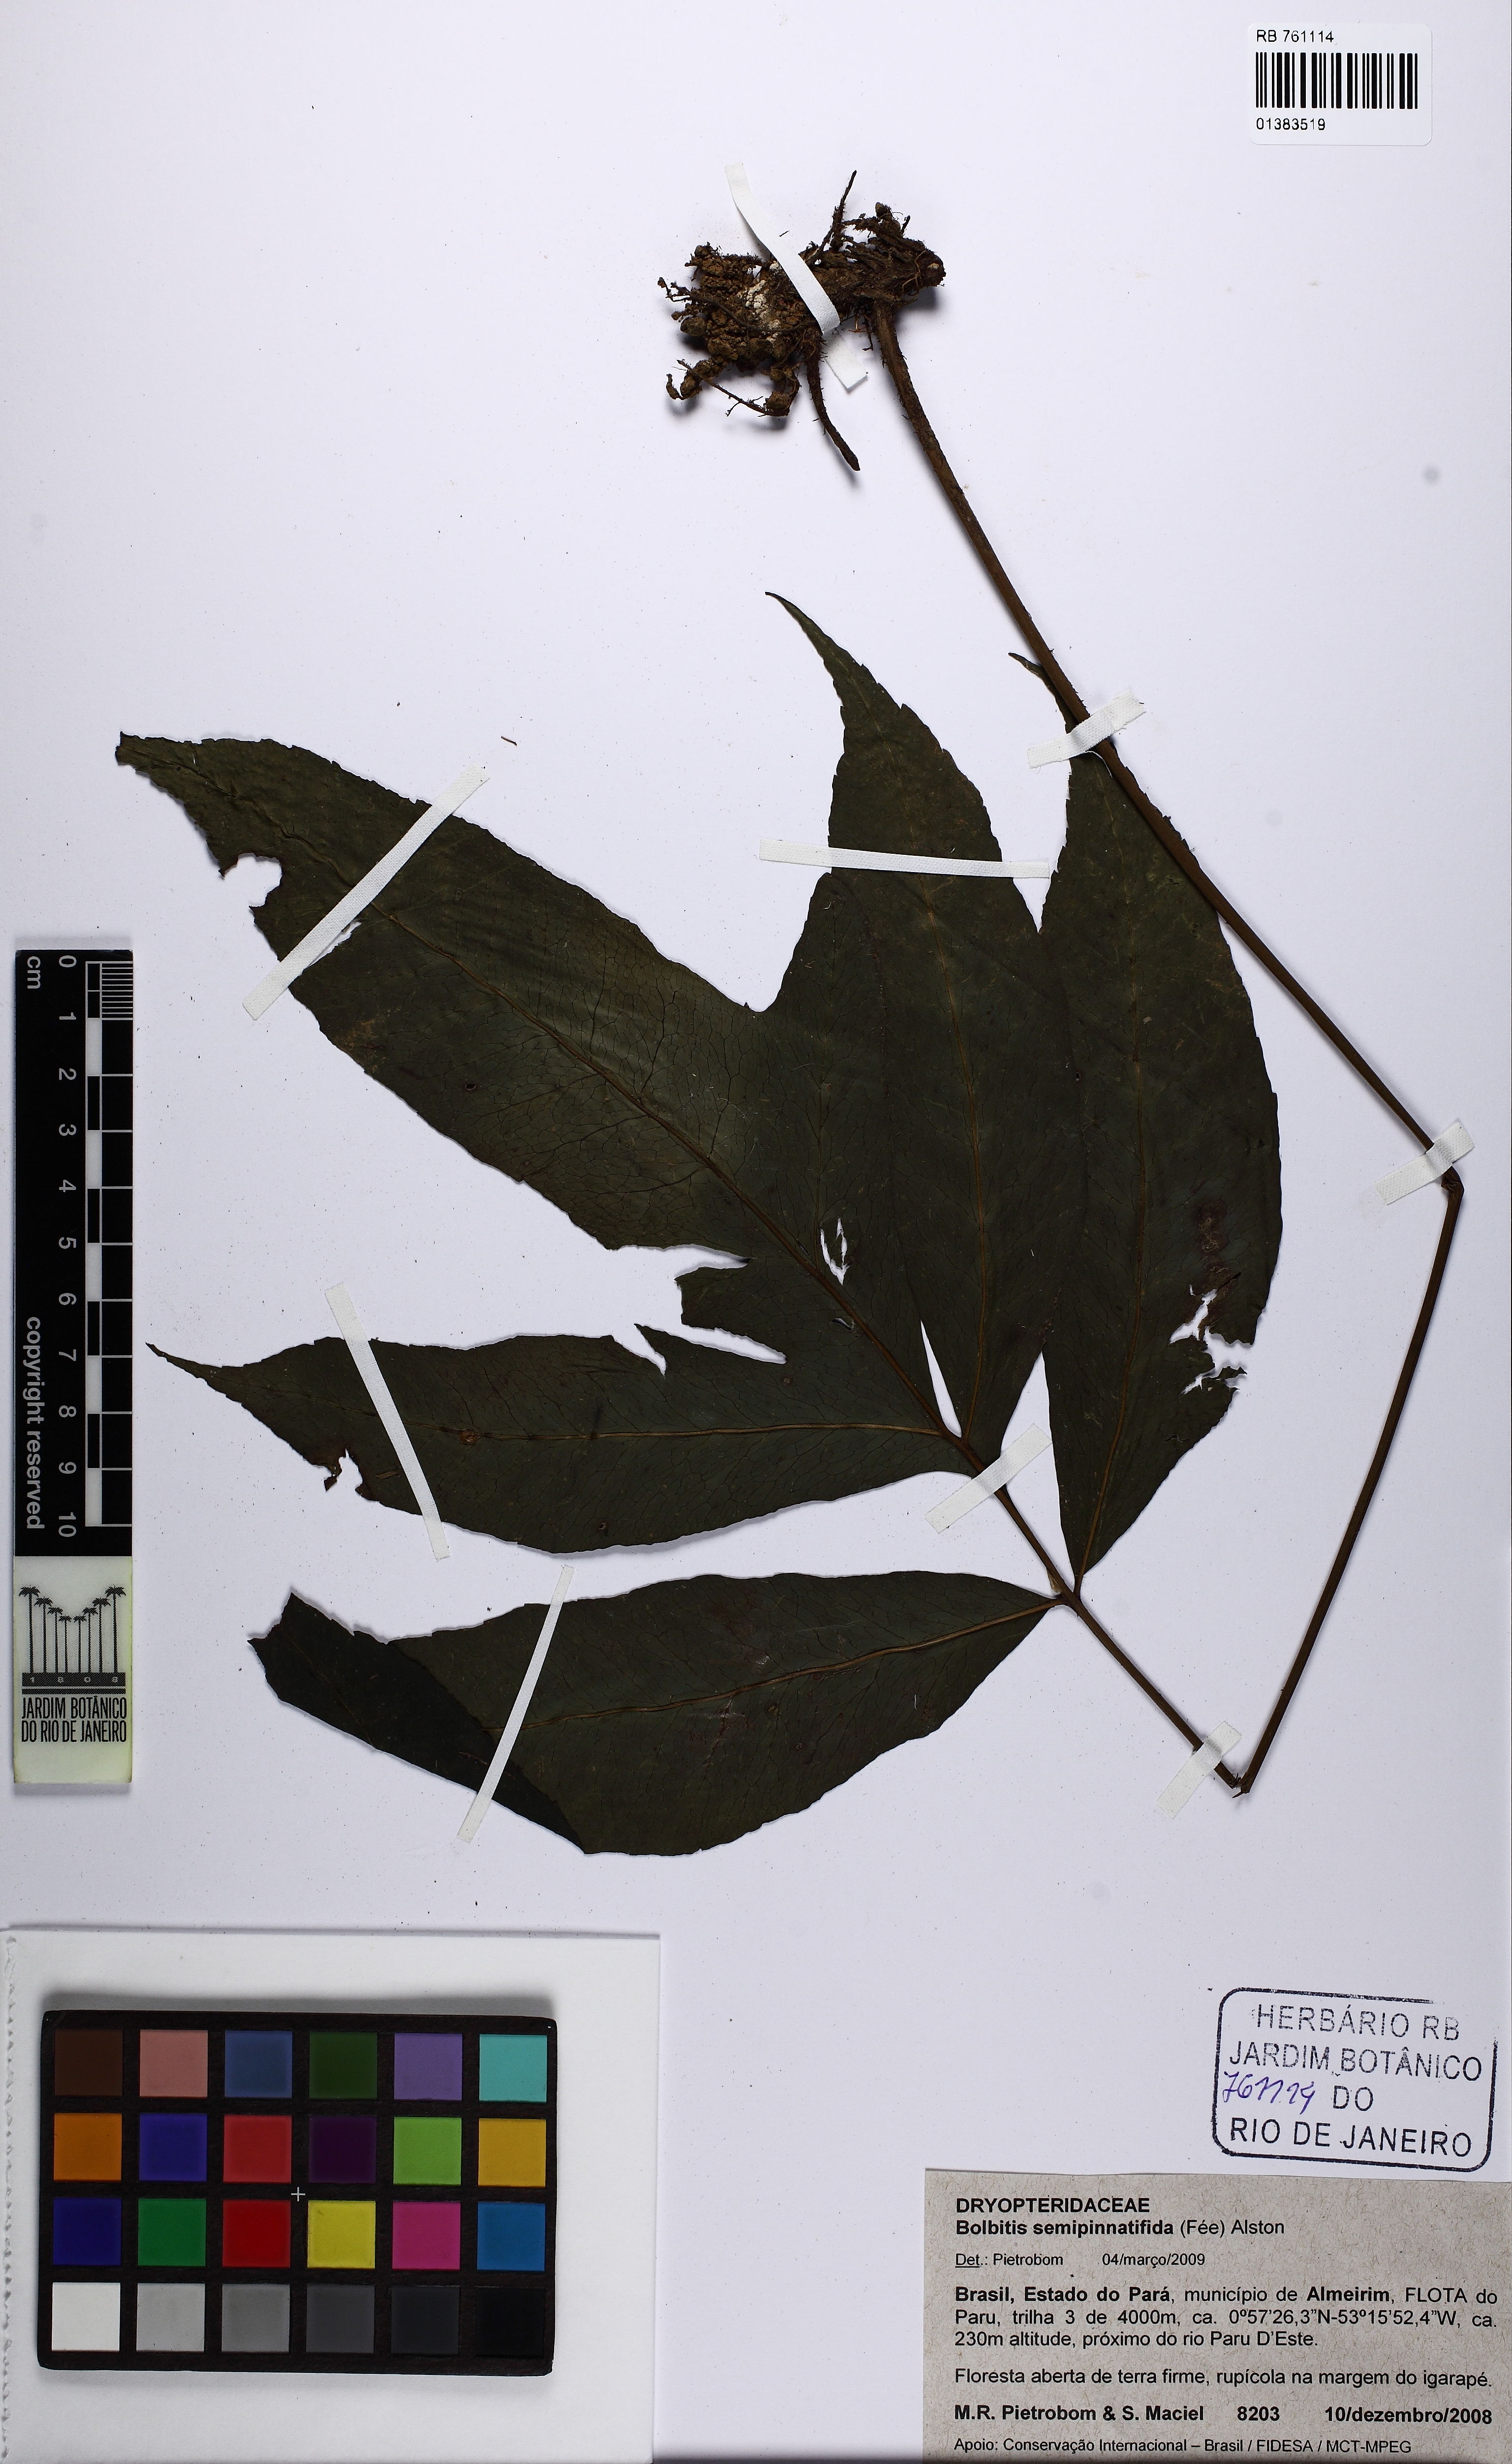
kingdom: Plantae
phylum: Tracheophyta
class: Polypodiopsida
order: Polypodiales
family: Dryopteridaceae
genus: Bolbitis
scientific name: Bolbitis semipinnatifida
